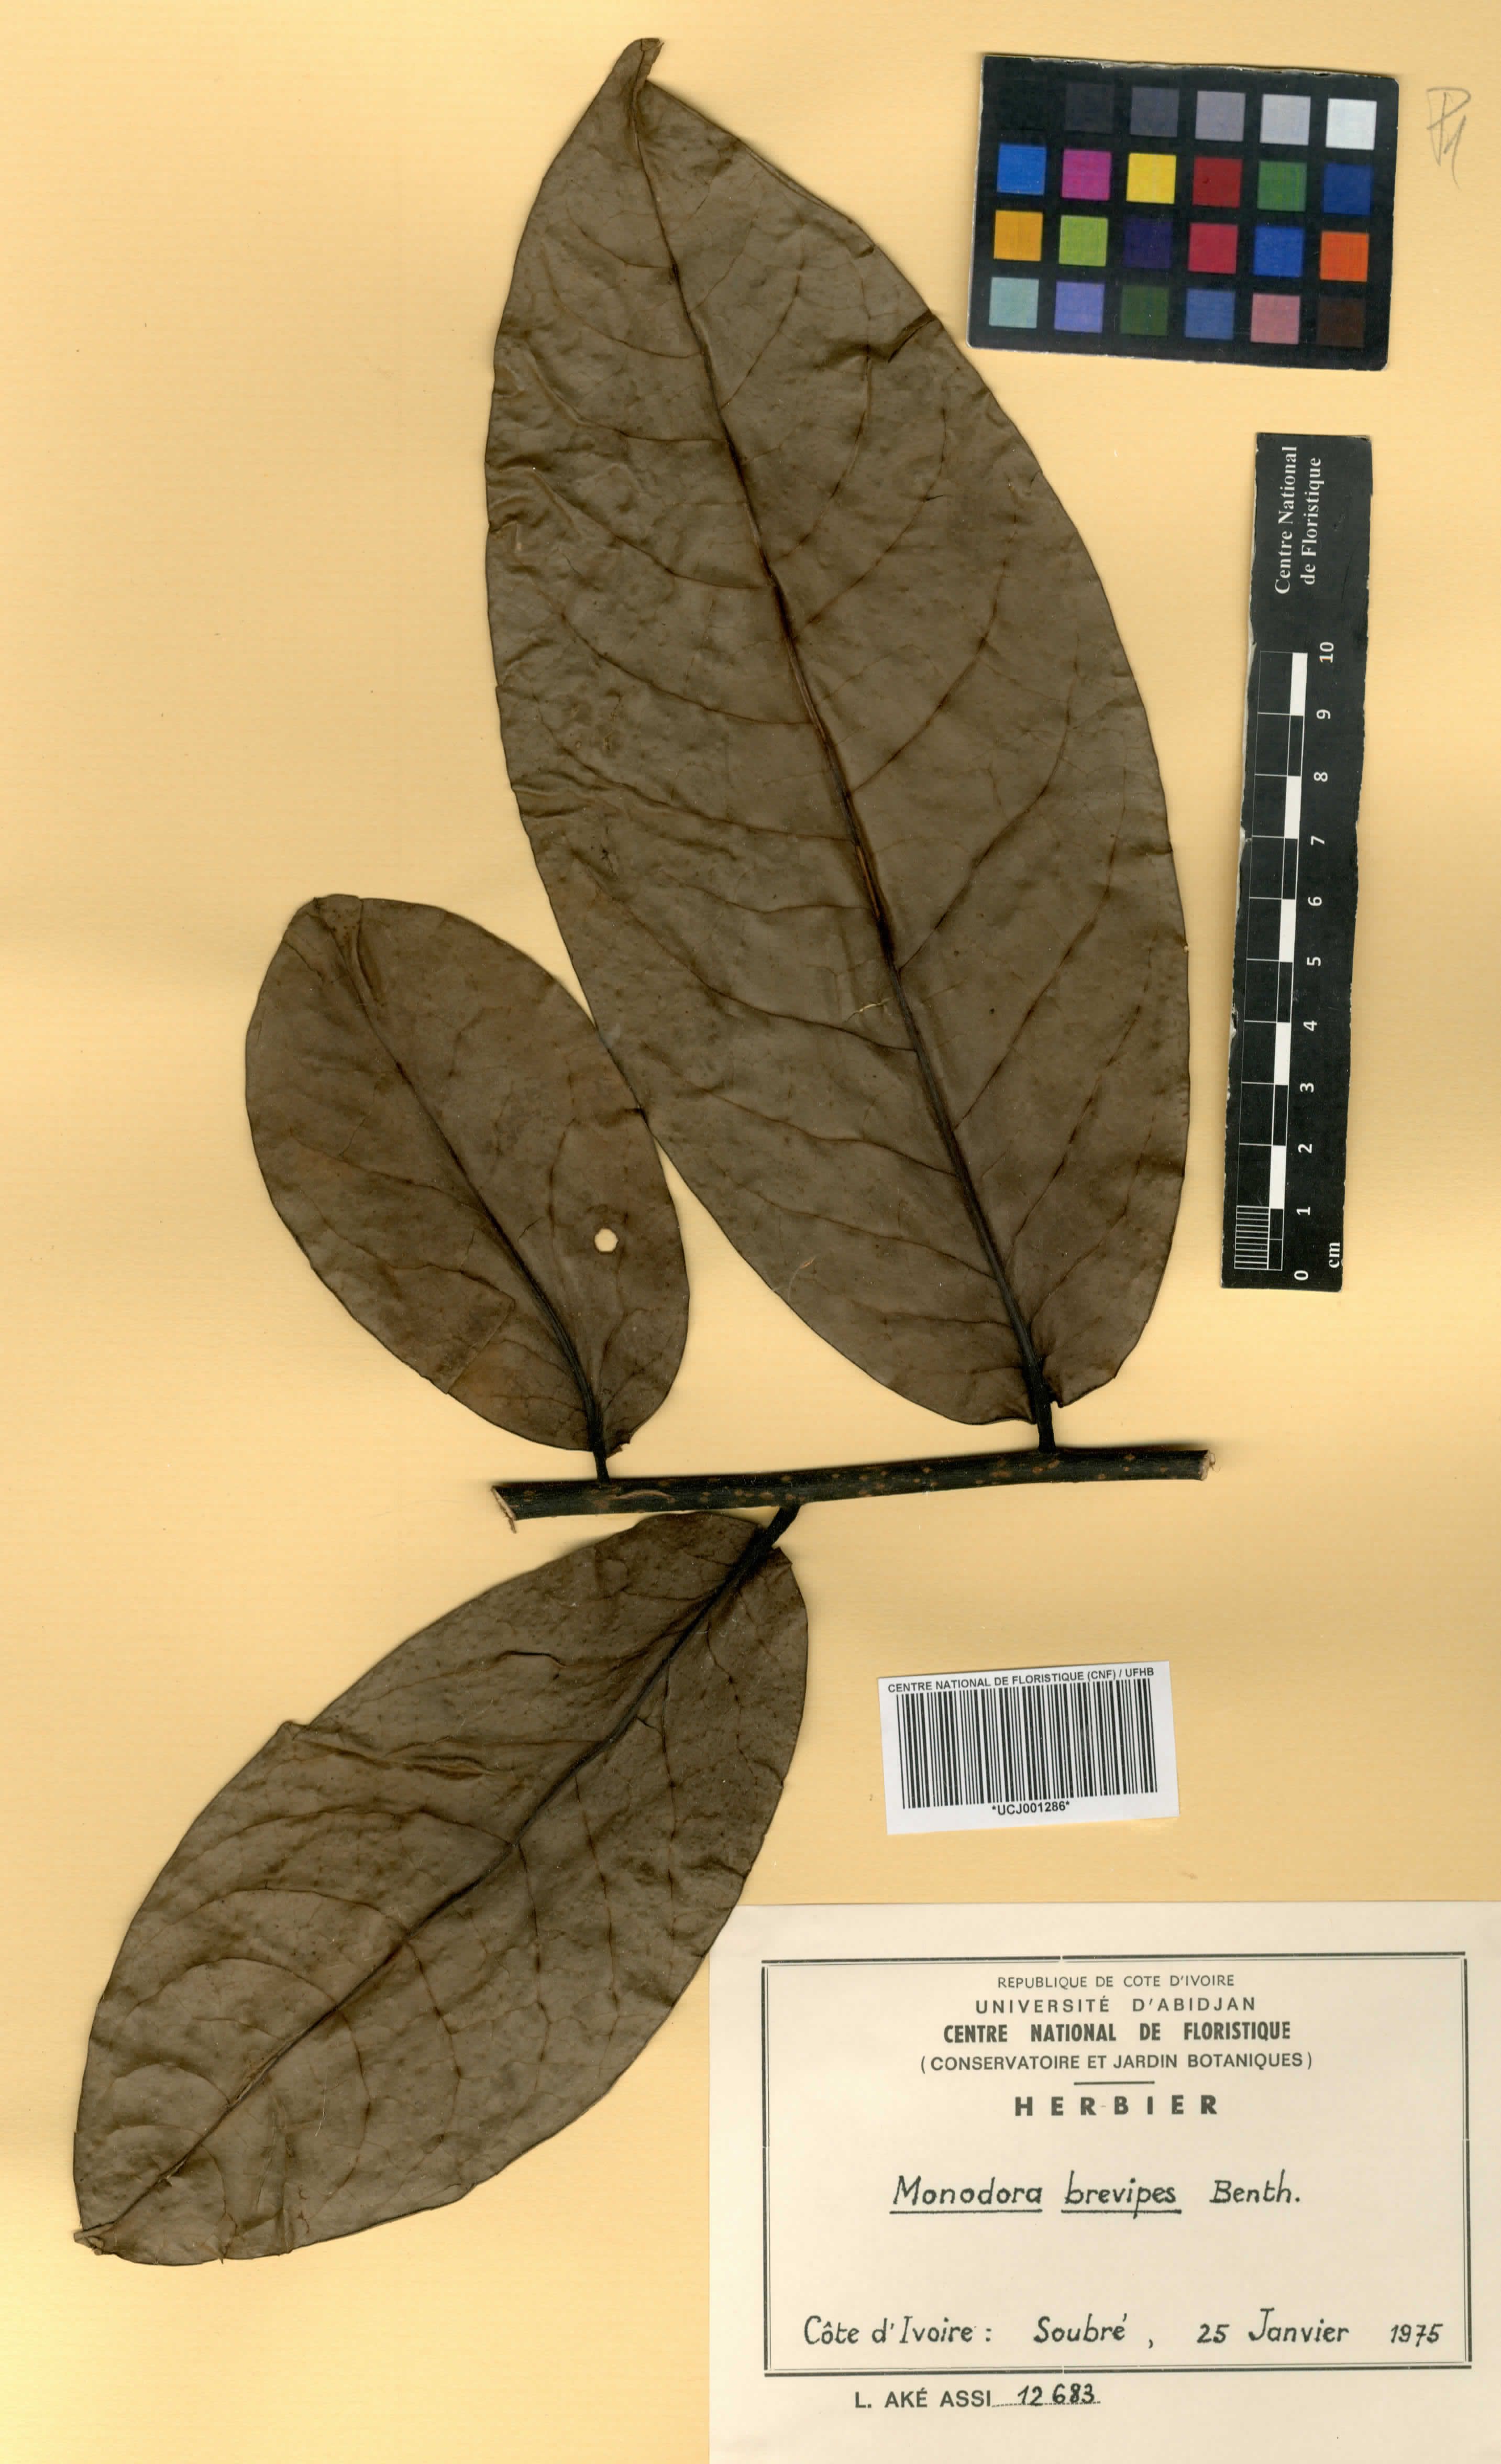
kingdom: Plantae
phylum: Tracheophyta
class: Magnoliopsida
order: Magnoliales
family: Annonaceae
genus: Monodora
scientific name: Monodora undulata
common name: Yellow-flower-nutmeg
